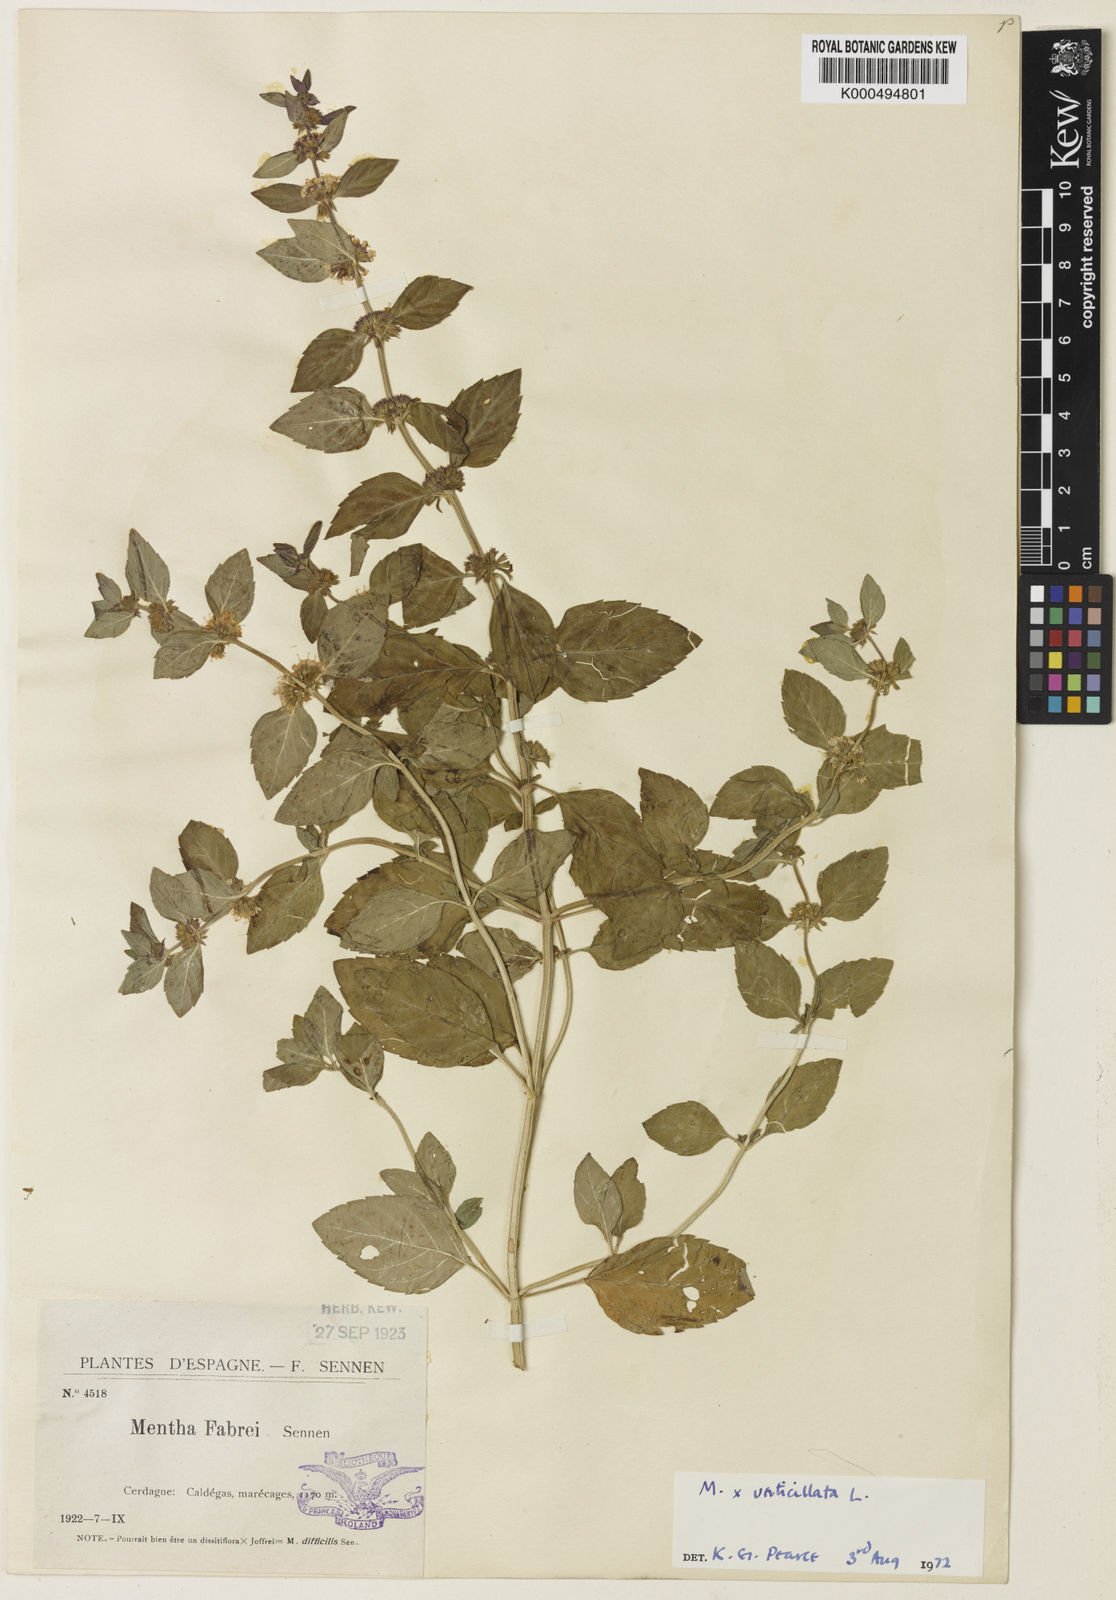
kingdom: Plantae
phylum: Tracheophyta
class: Magnoliopsida
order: Lamiales
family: Lamiaceae
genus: Mentha
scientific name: Mentha verticillata
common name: Mint
